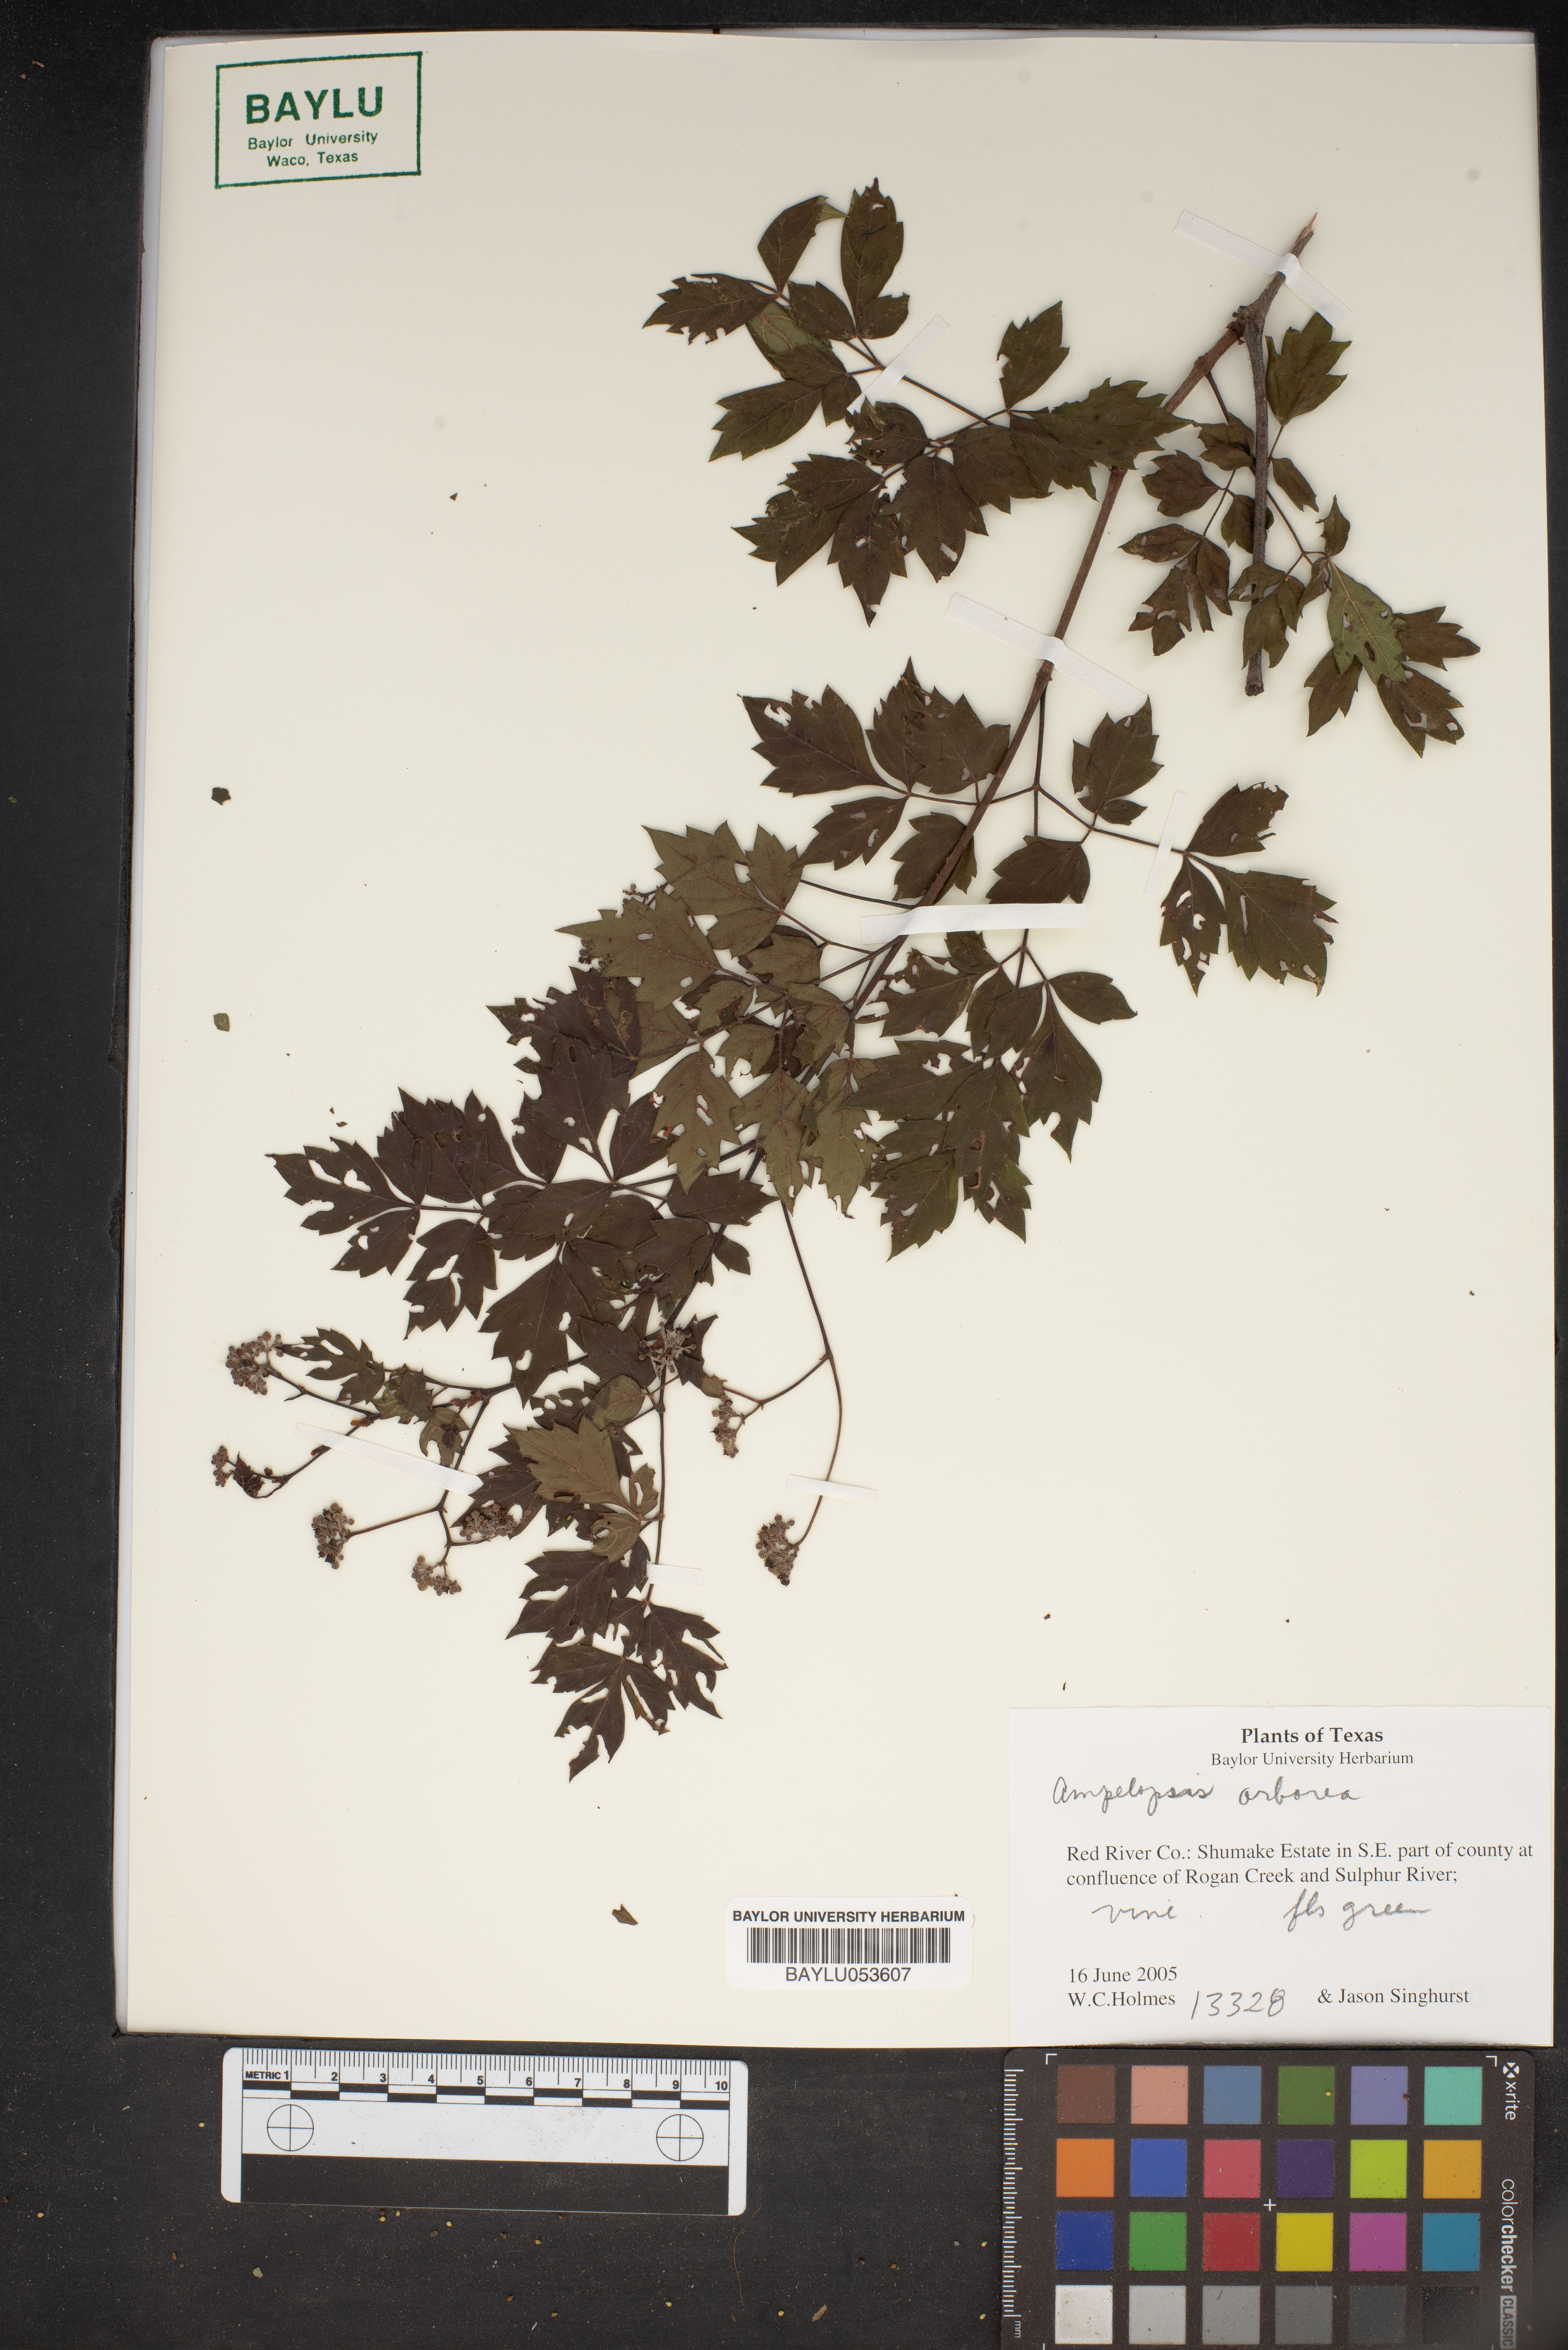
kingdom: Plantae
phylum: Tracheophyta
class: Magnoliopsida
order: Vitales
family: Vitaceae
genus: Nekemias
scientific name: Nekemias arborea
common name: Peppervine
